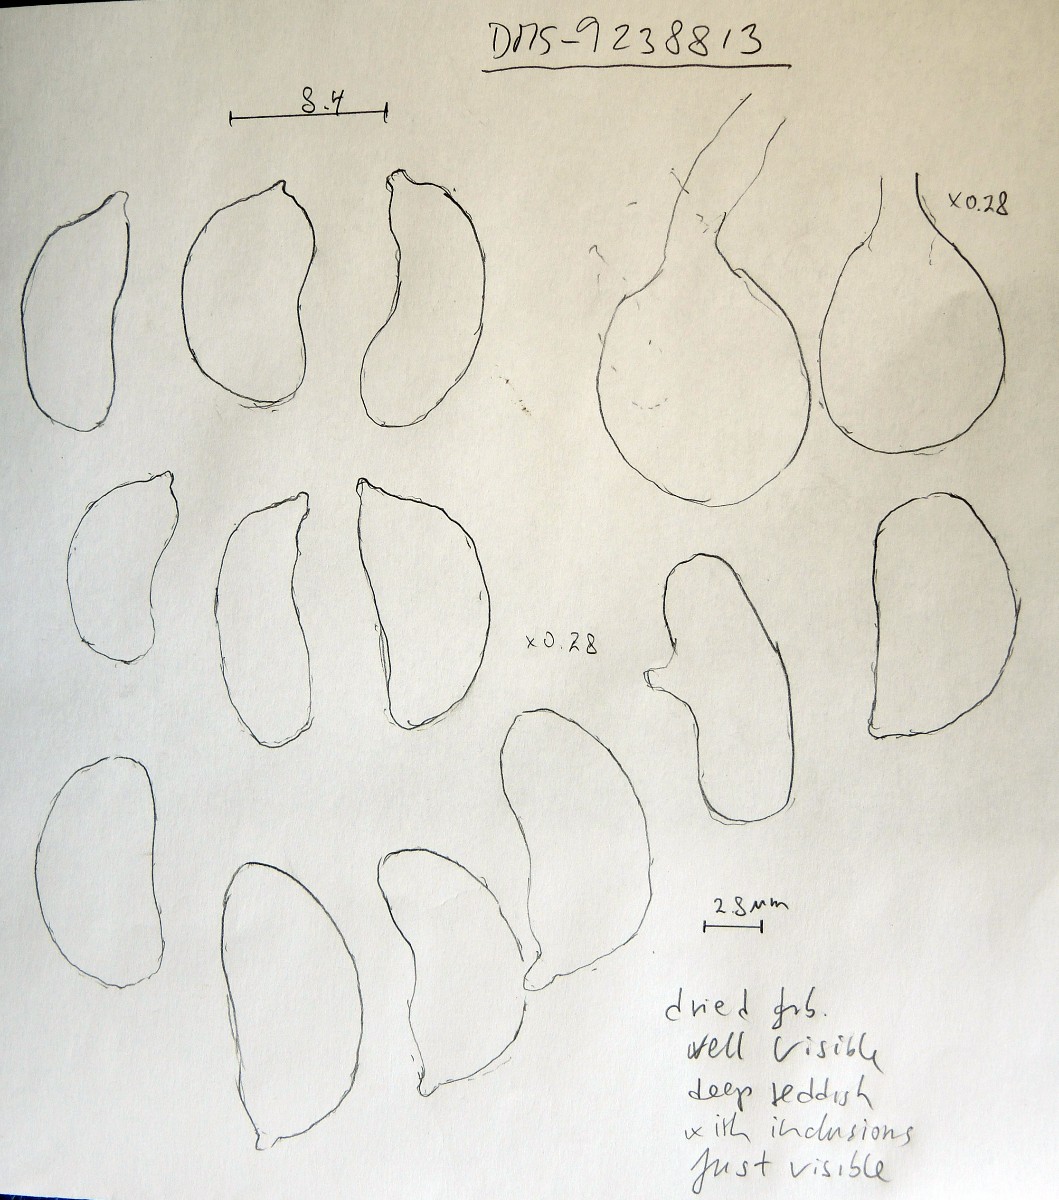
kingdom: Fungi
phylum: Basidiomycota
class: Agaricomycetes
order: Auriculariales
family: Hyaloriaceae
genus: Myxarium
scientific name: Myxarium hyalinum
